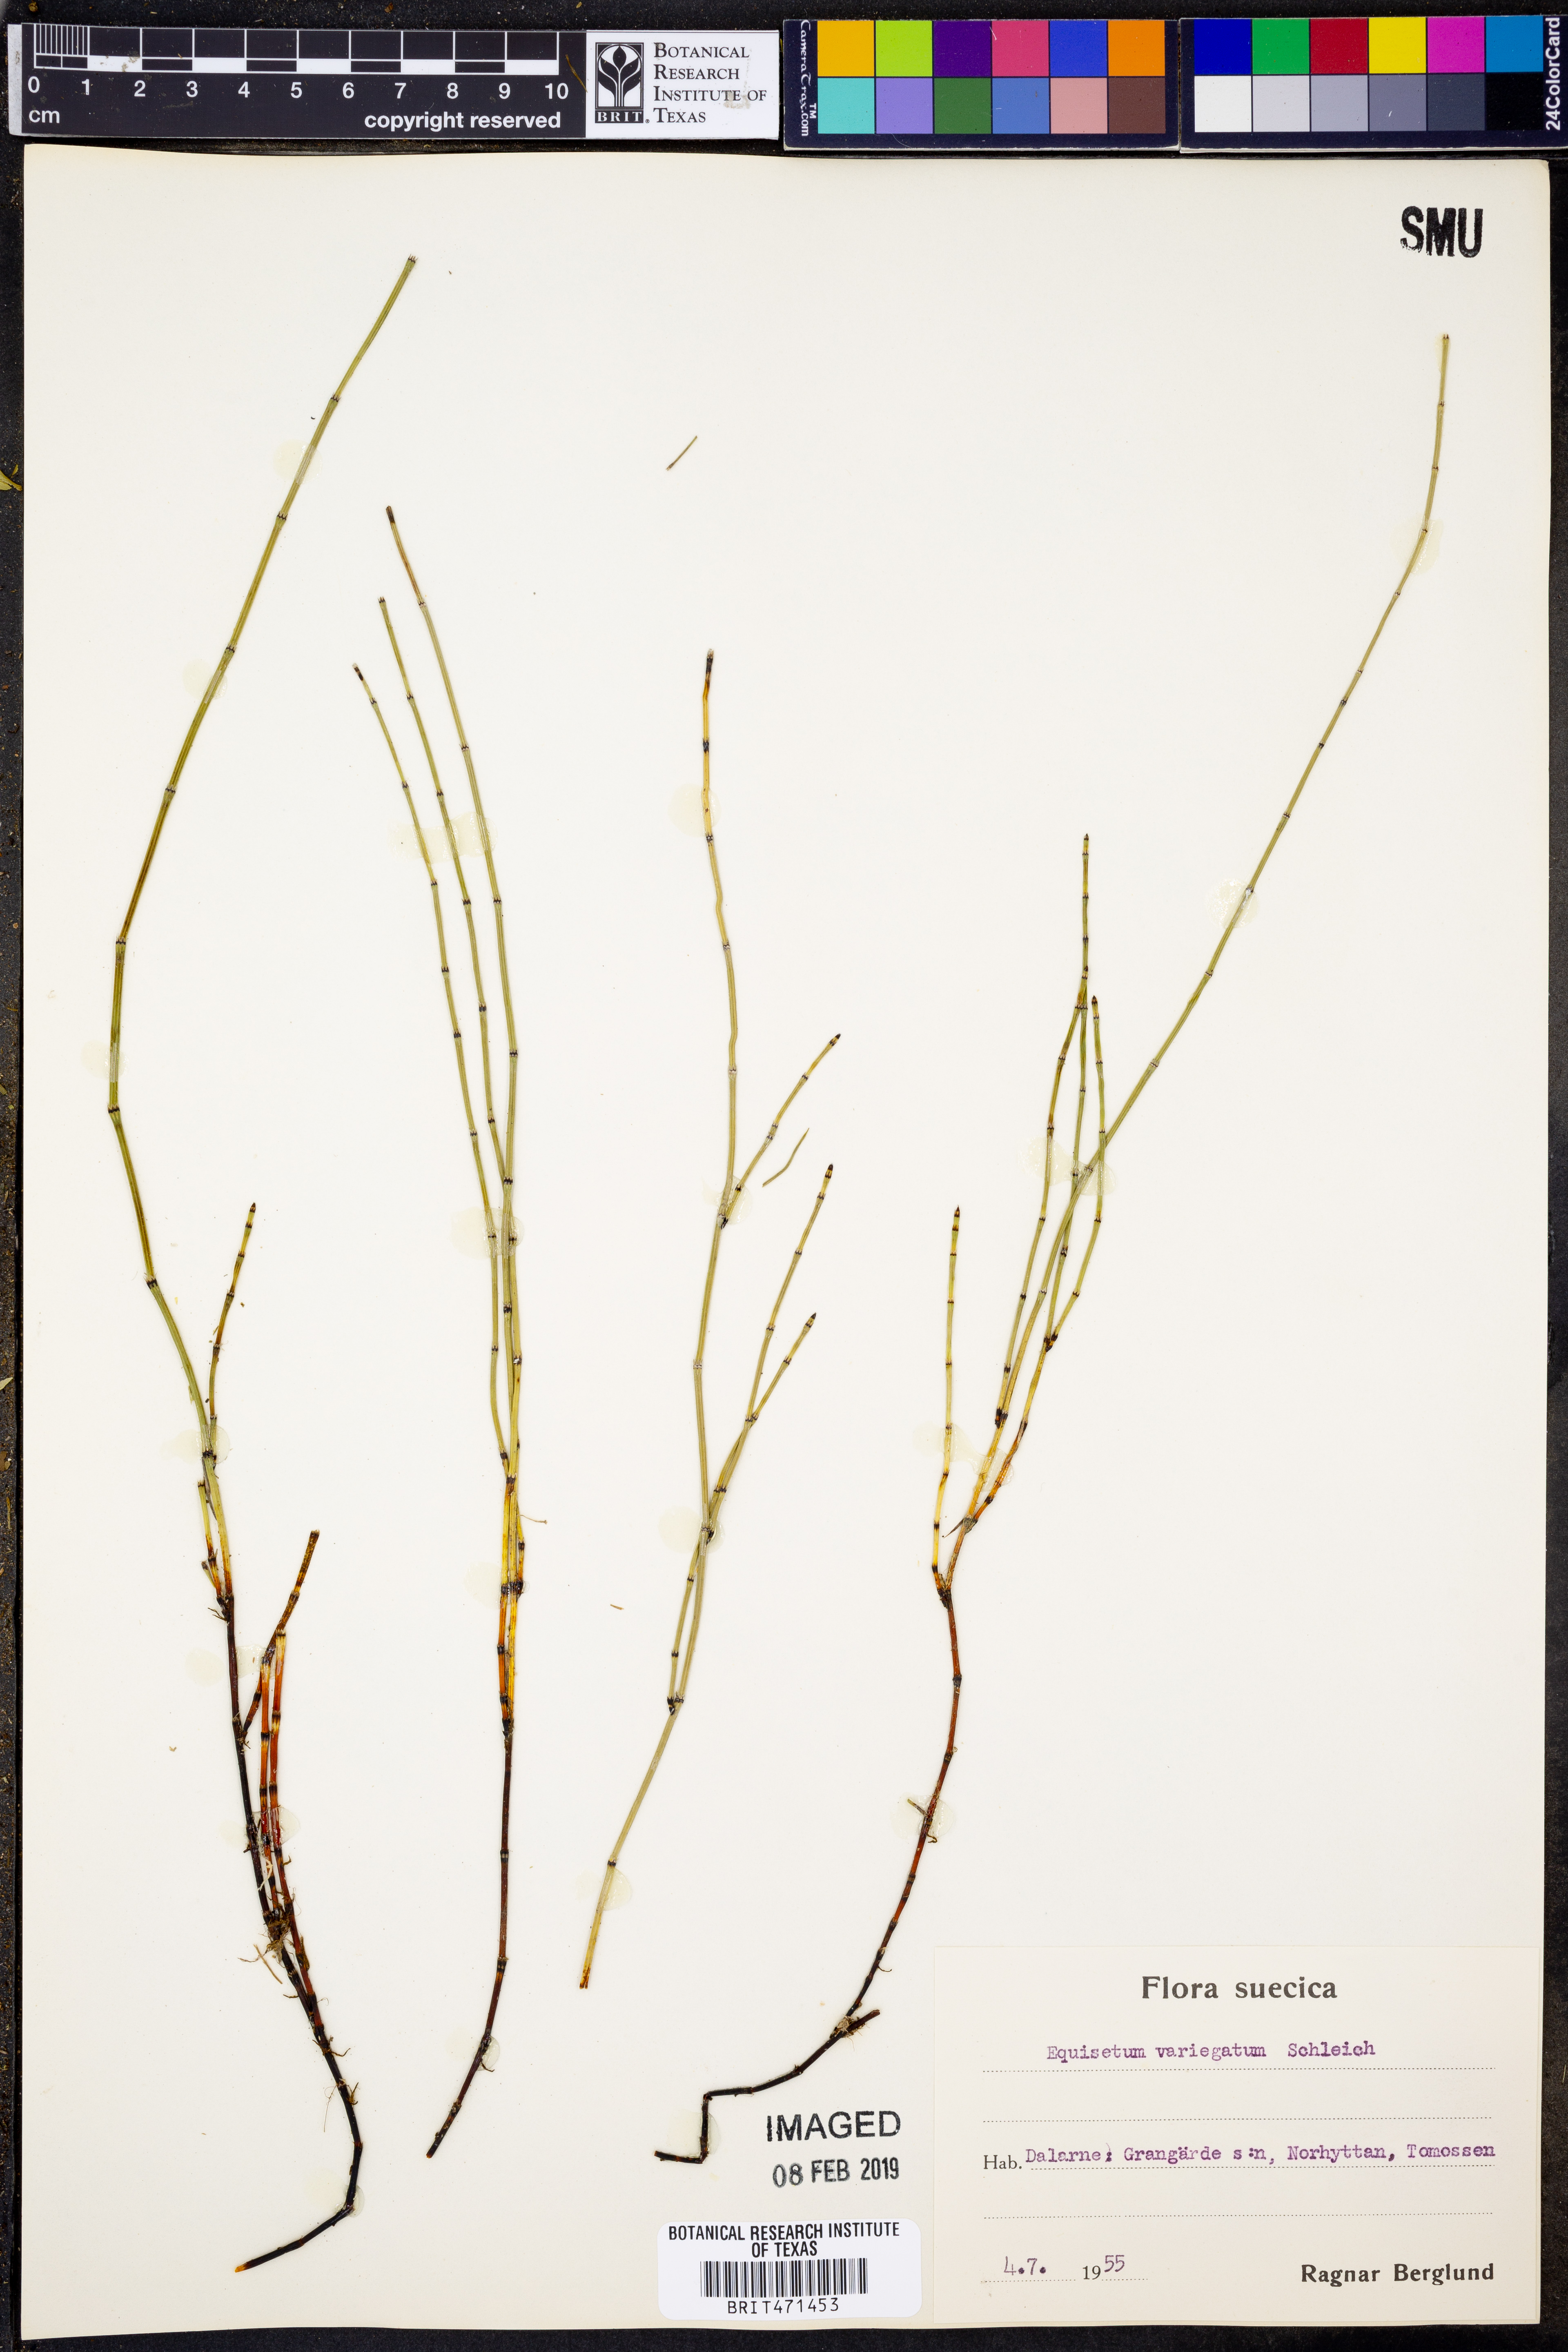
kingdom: Plantae
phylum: Tracheophyta
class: Polypodiopsida
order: Equisetales
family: Equisetaceae
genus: Equisetum
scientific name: Equisetum variegatum
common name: Variegated horsetail
